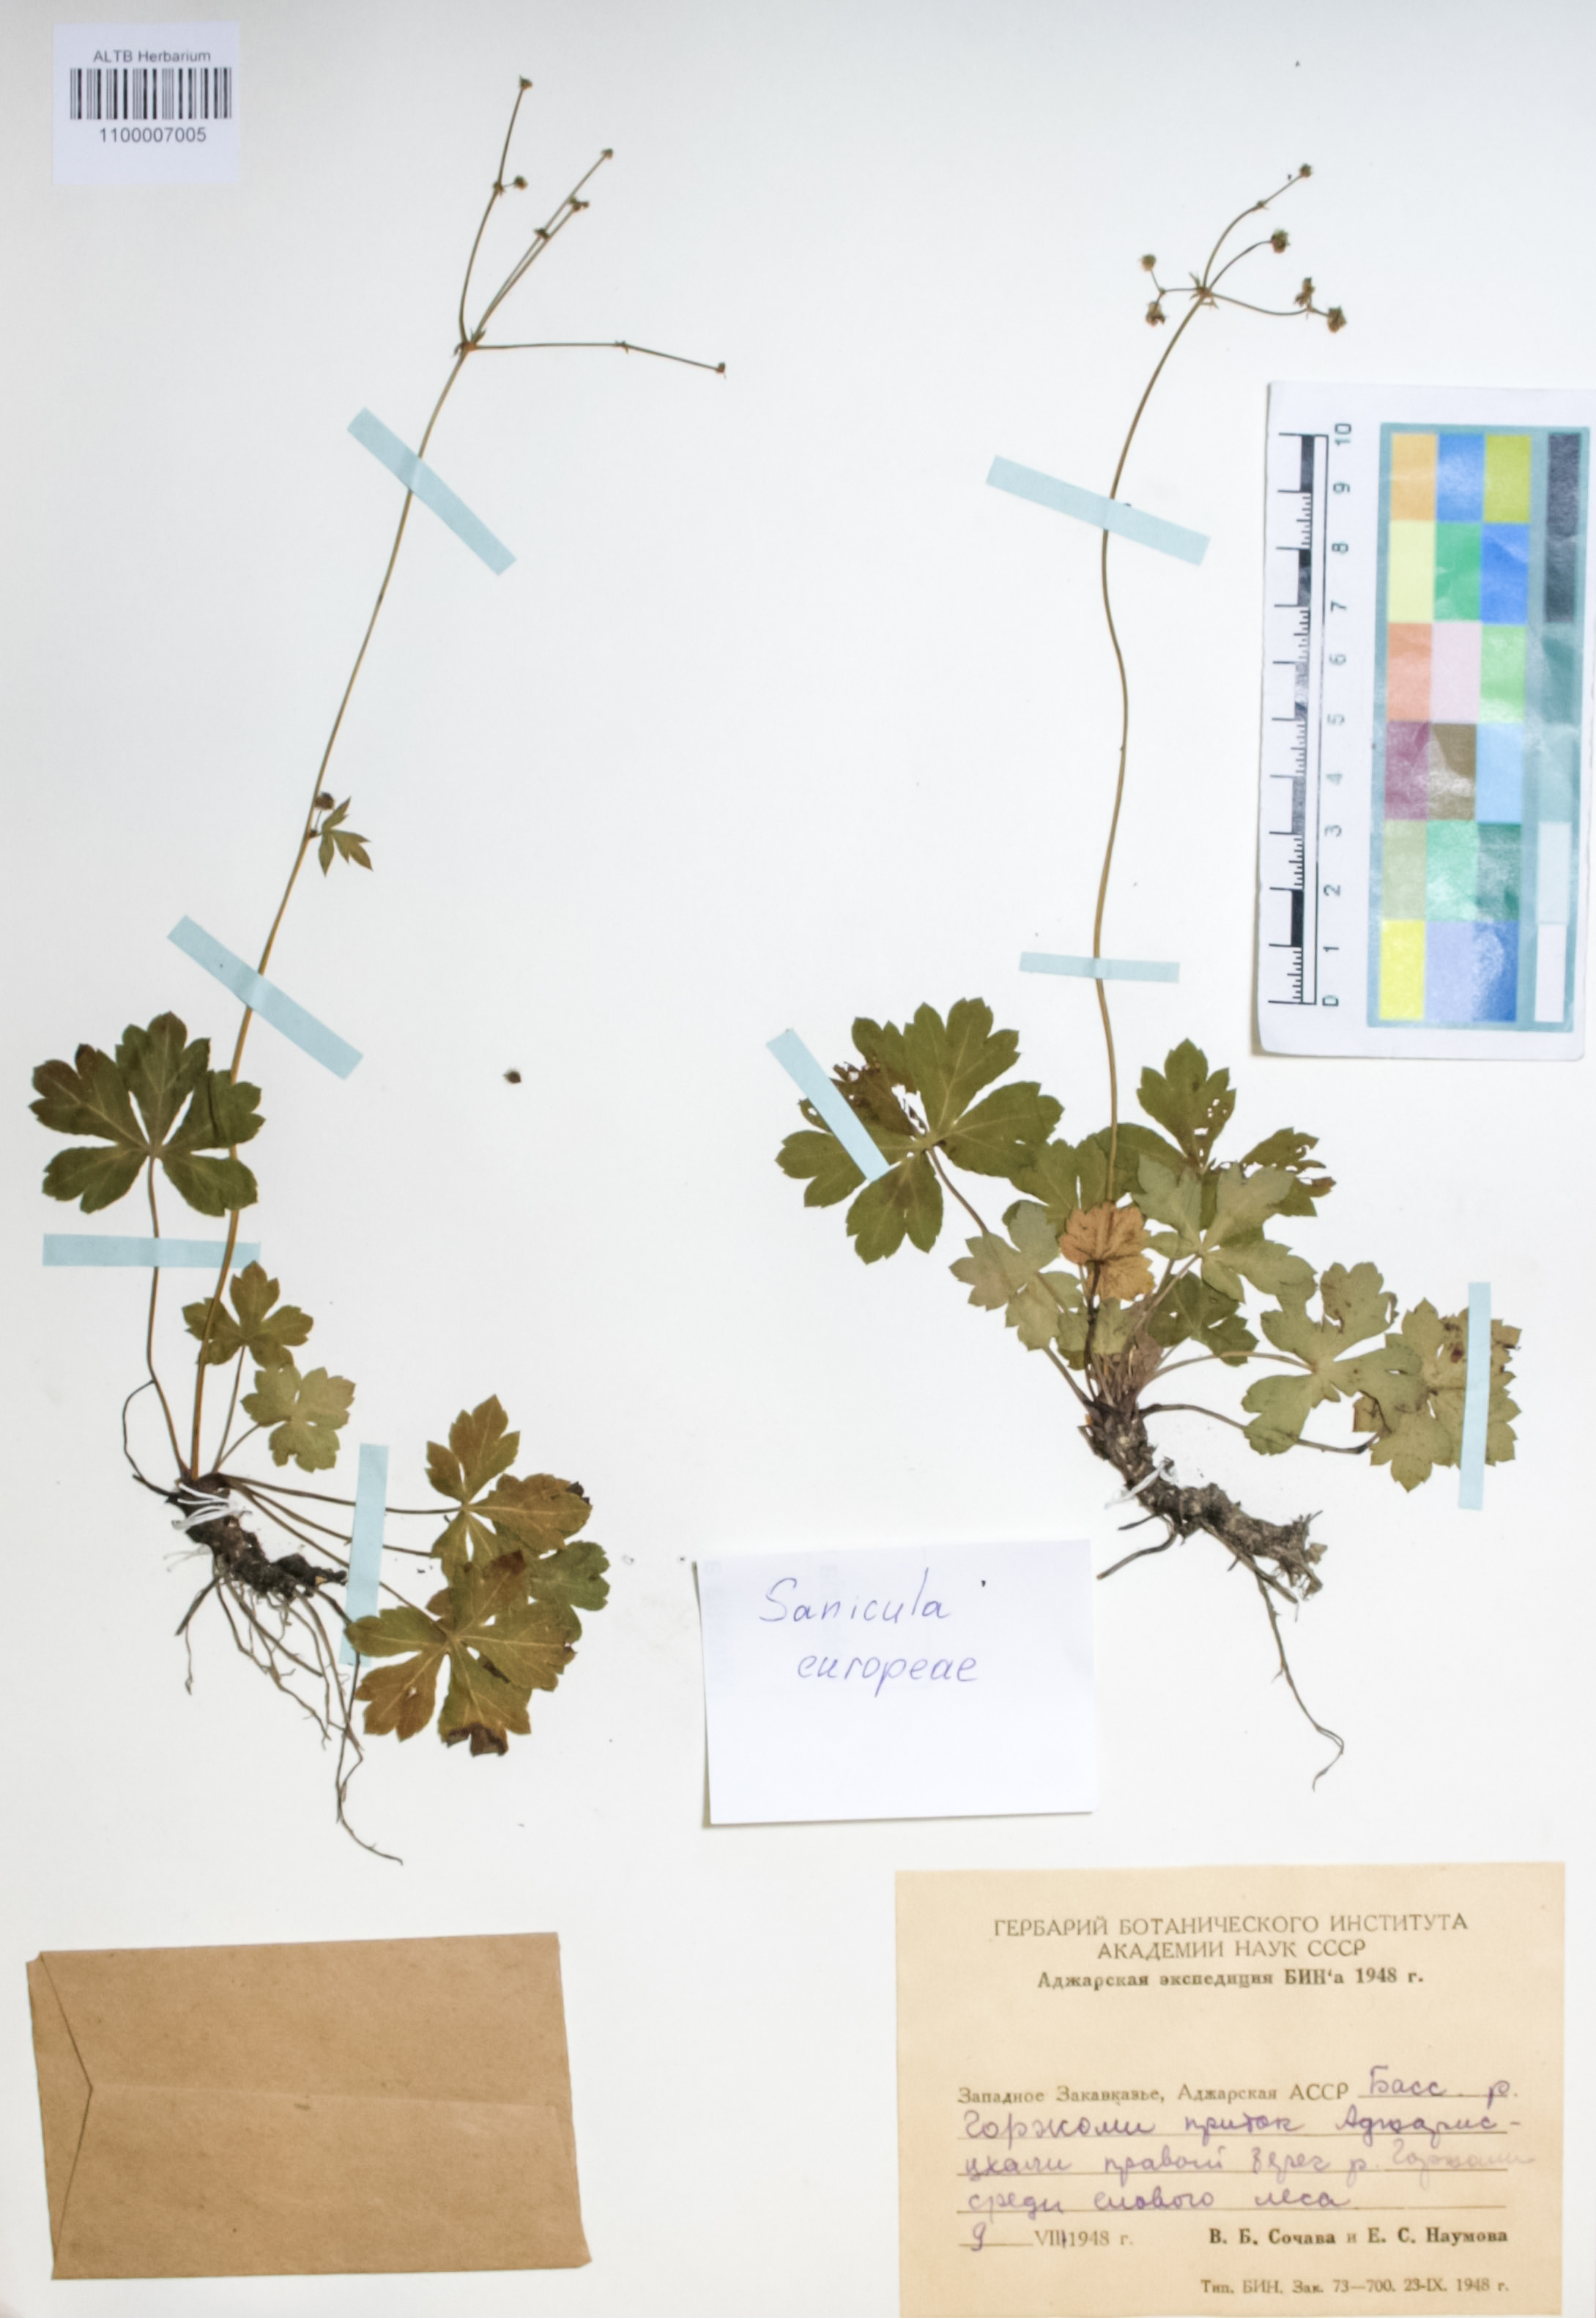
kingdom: Plantae
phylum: Tracheophyta
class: Magnoliopsida
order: Apiales
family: Apiaceae
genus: Sanicula
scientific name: Sanicula europaea
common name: Sanicle
